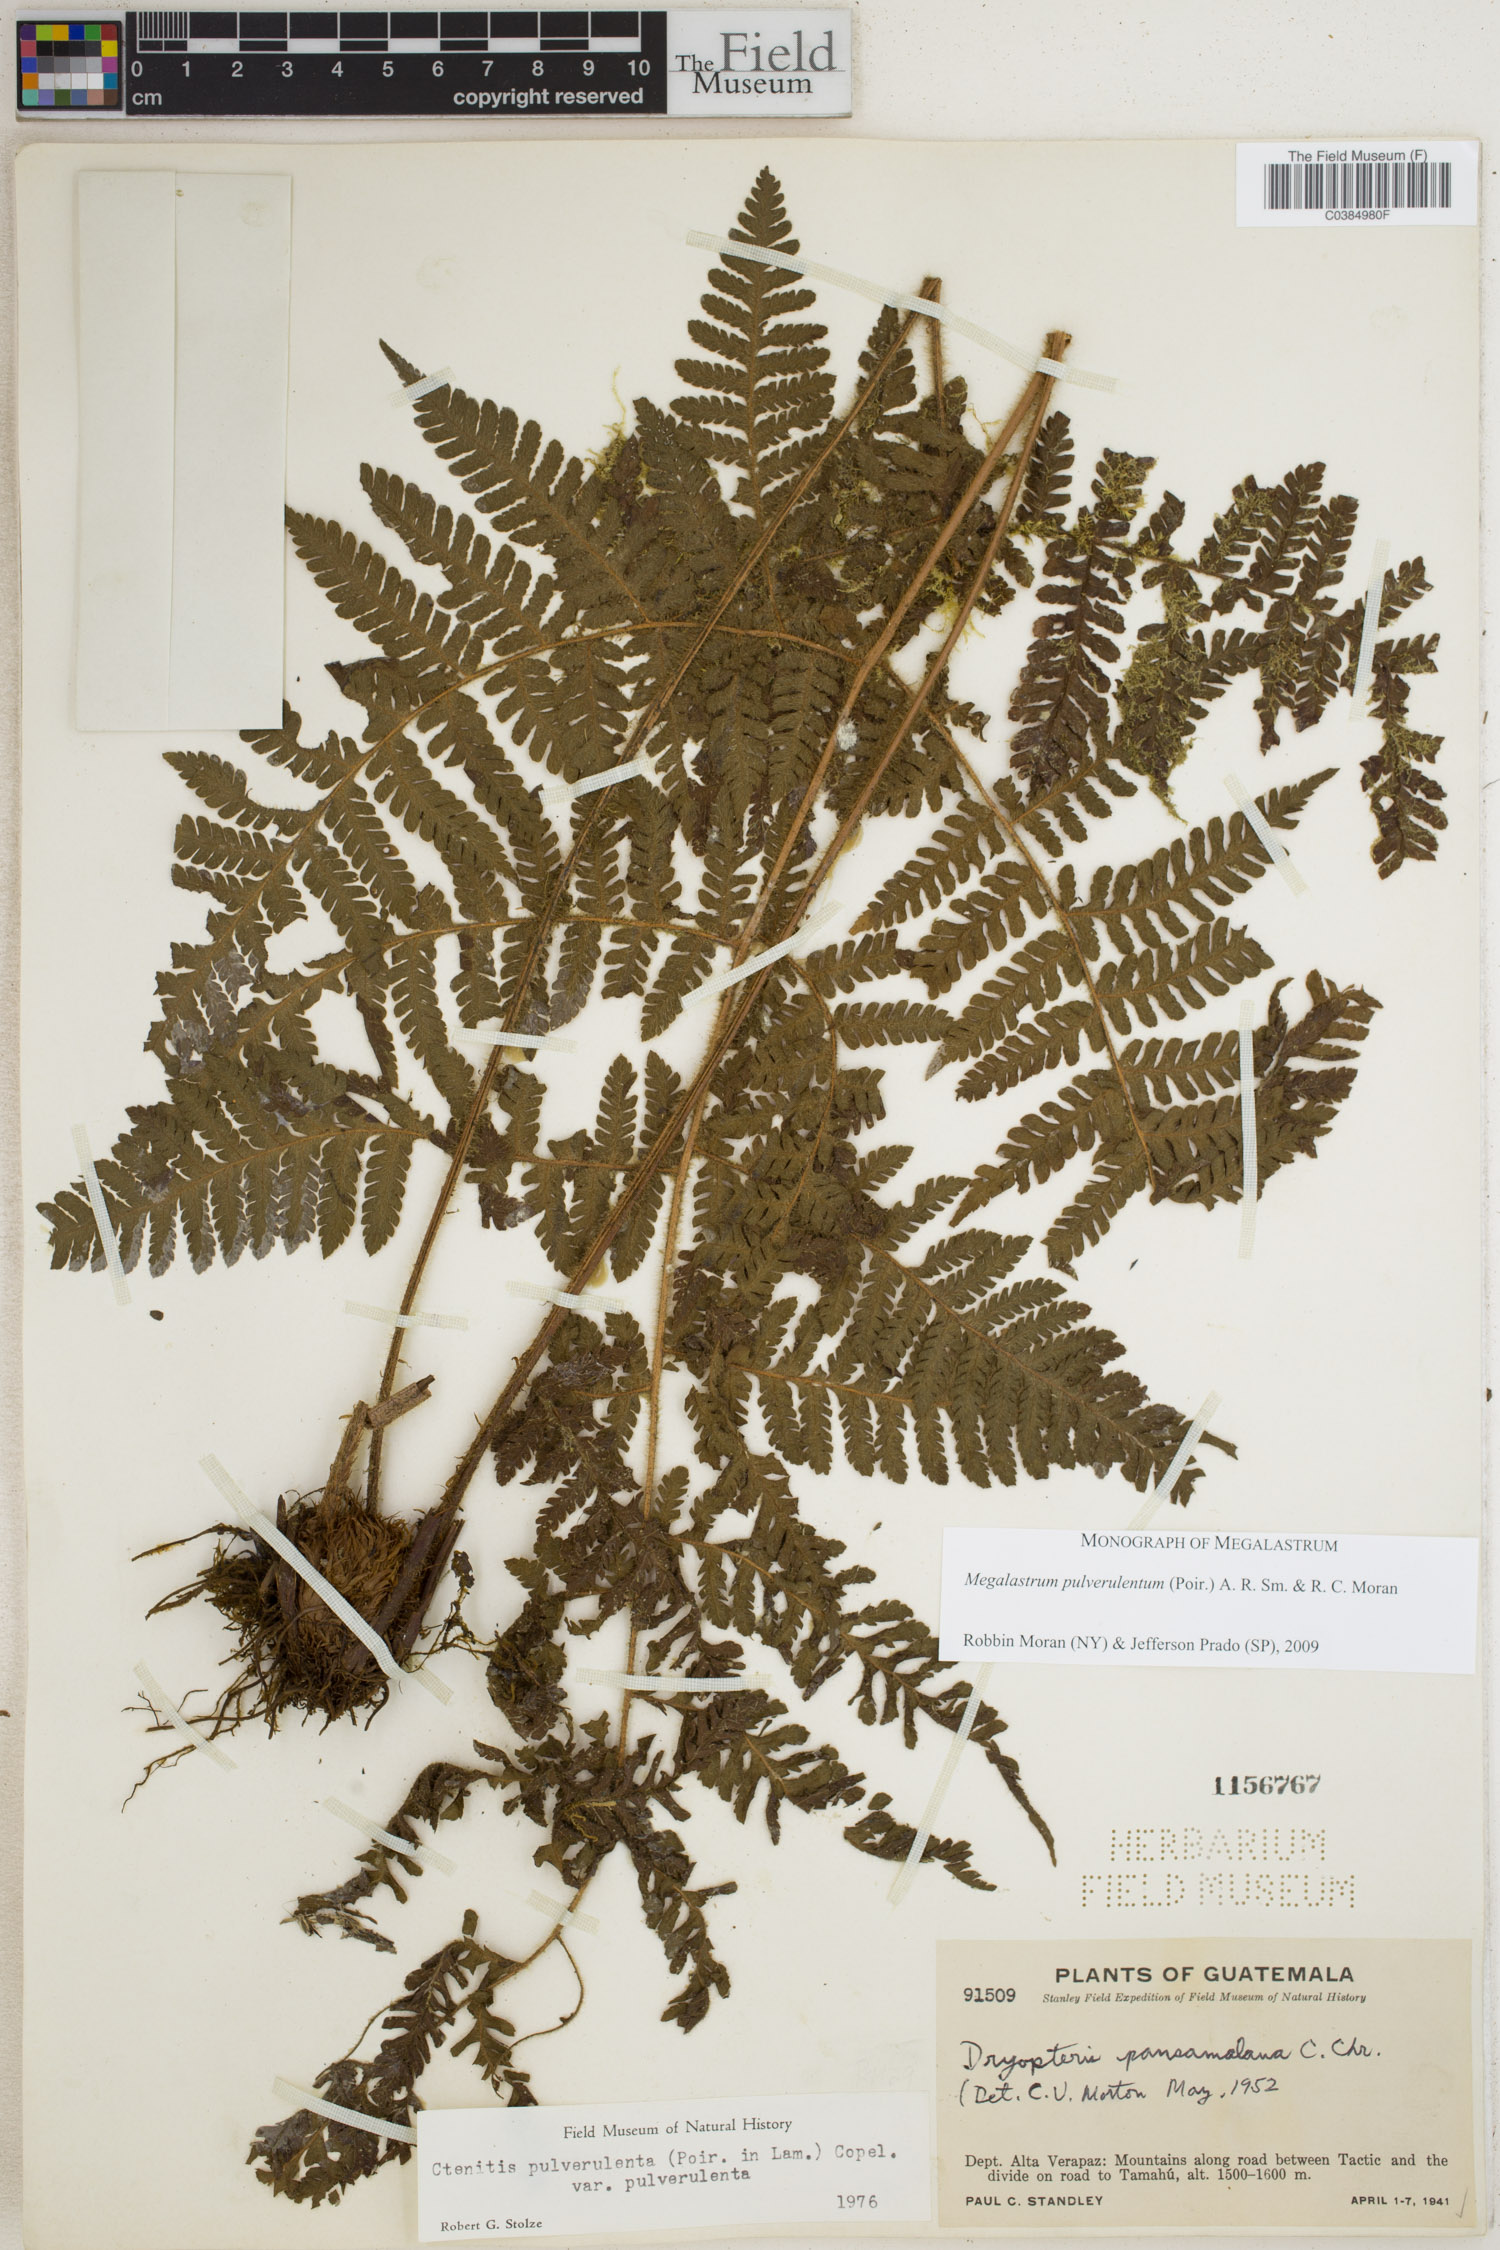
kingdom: Plantae
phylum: Tracheophyta
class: Polypodiopsida
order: Polypodiales
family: Dryopteridaceae
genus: Megalastrum
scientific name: Megalastrum pulverulentum
